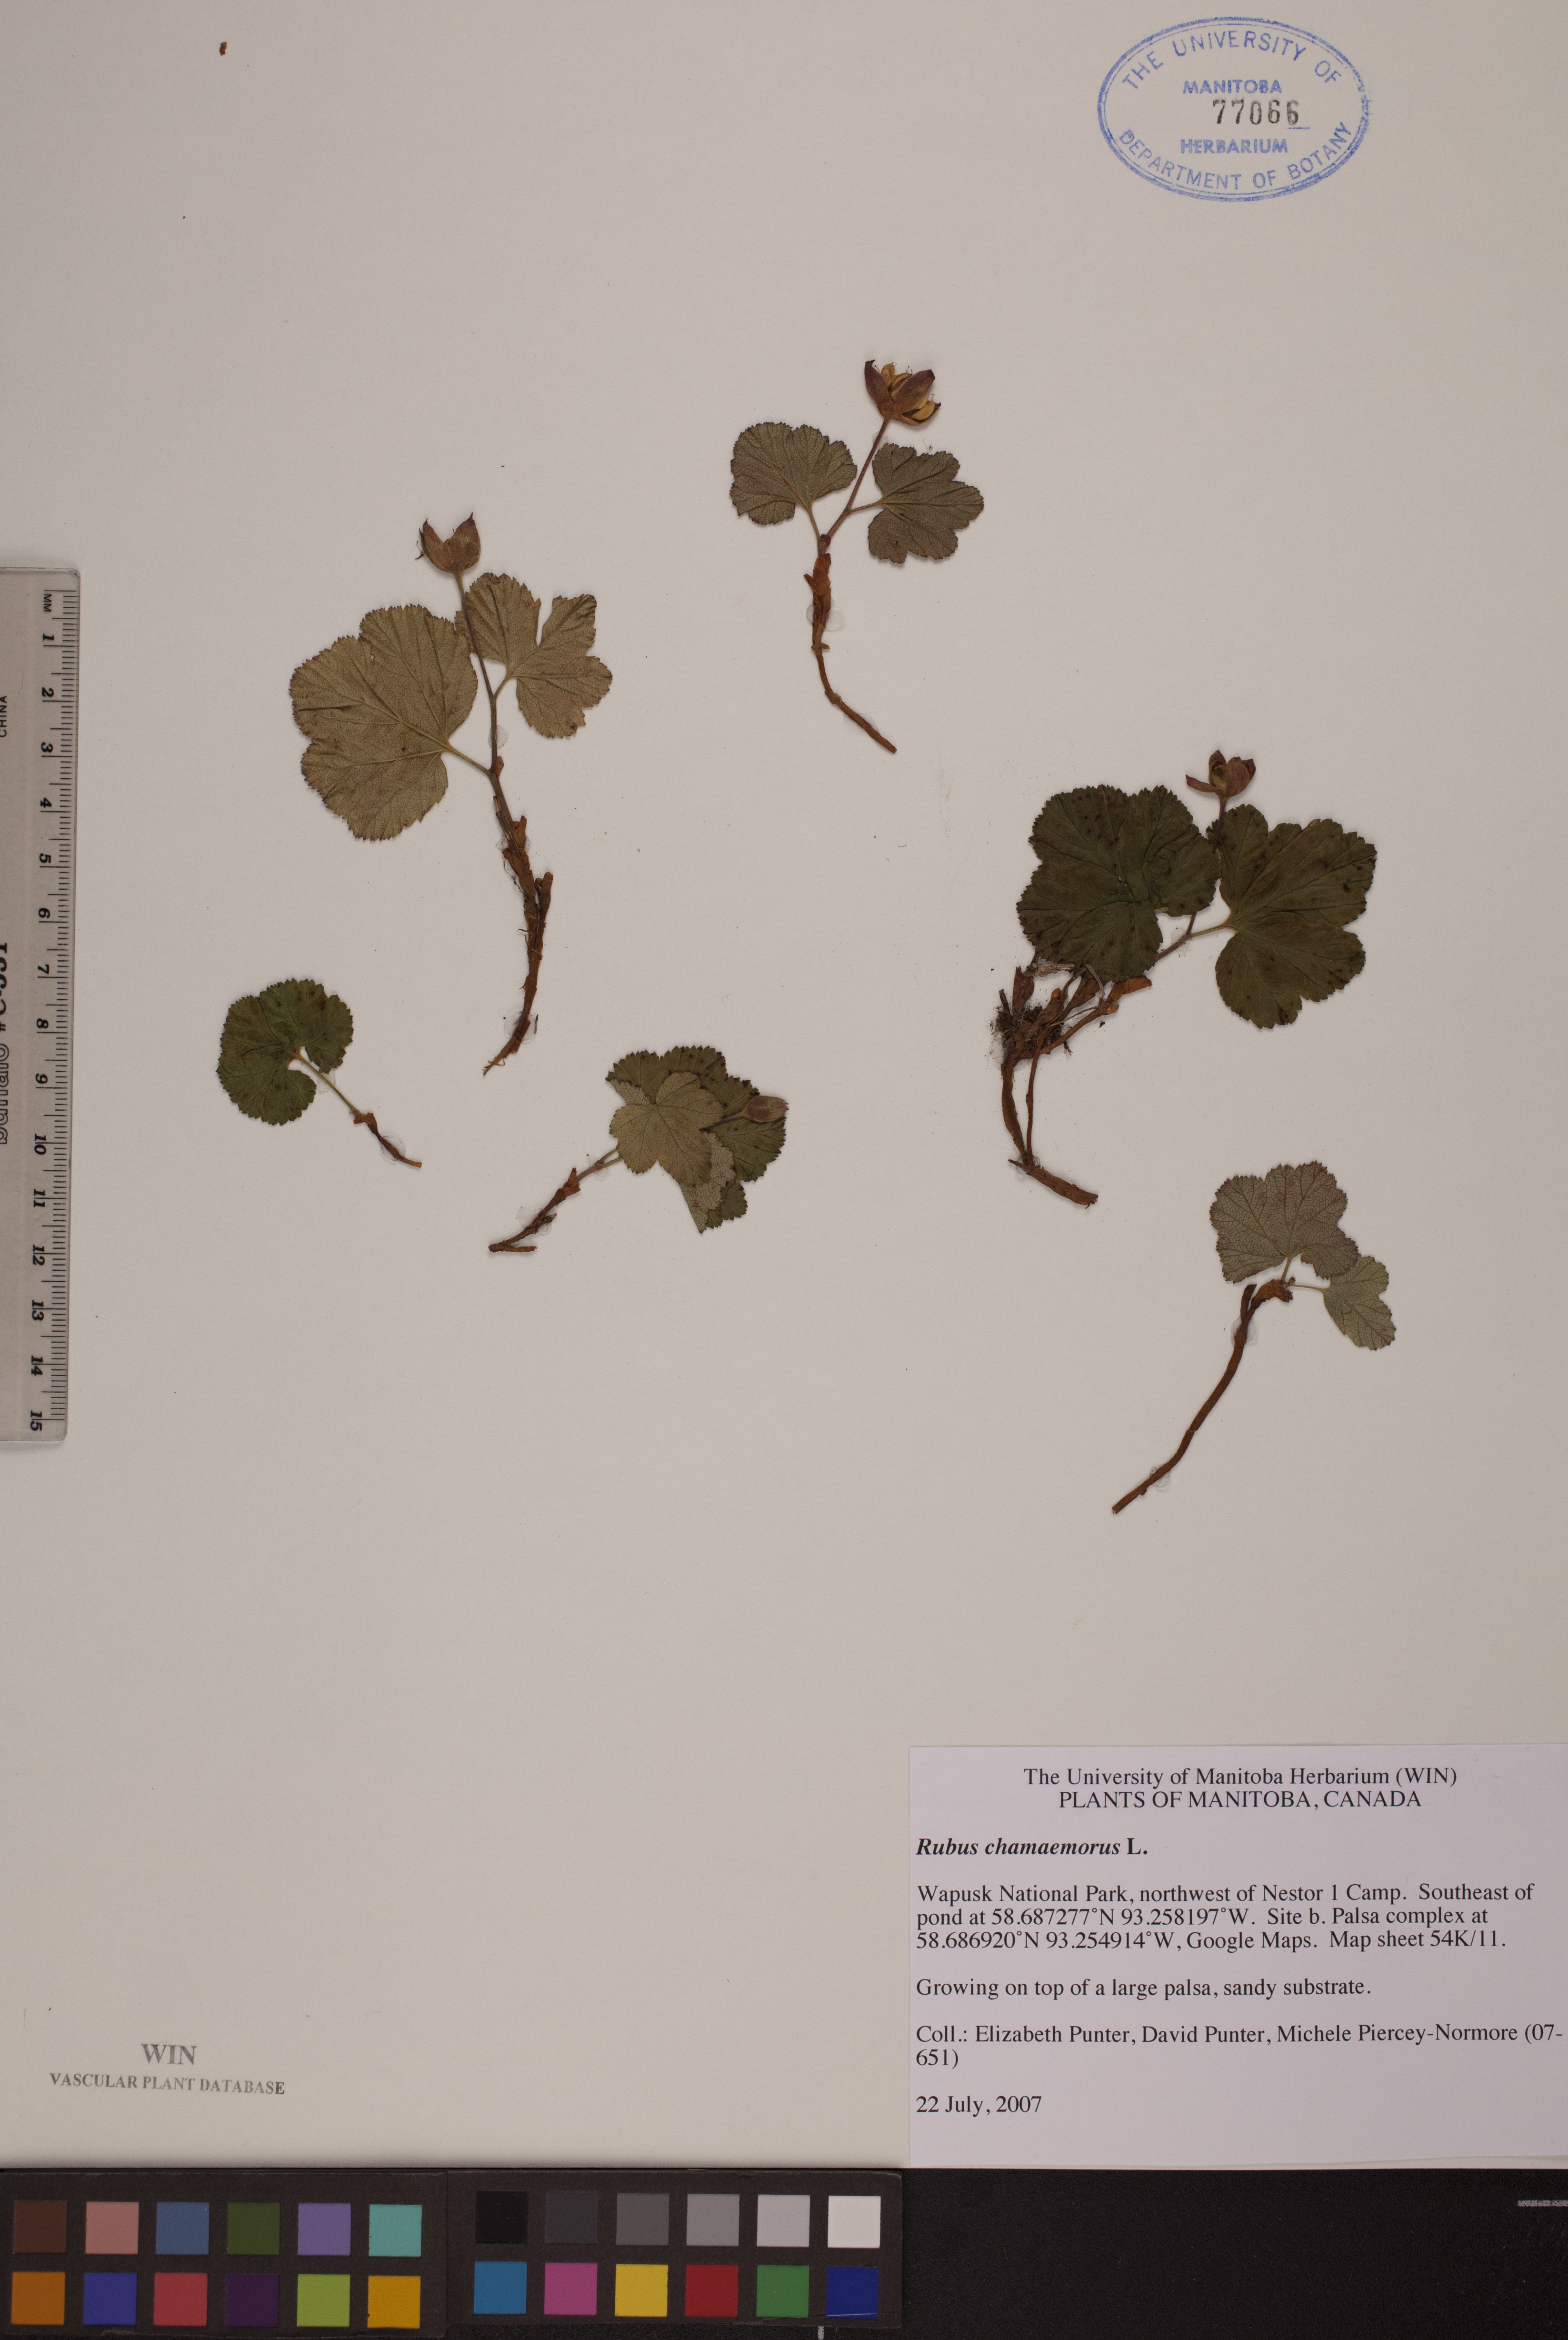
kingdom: Plantae
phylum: Tracheophyta
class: Magnoliopsida
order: Rosales
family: Rosaceae
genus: Rubus
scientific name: Rubus chamaemorus
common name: Cloudberry
